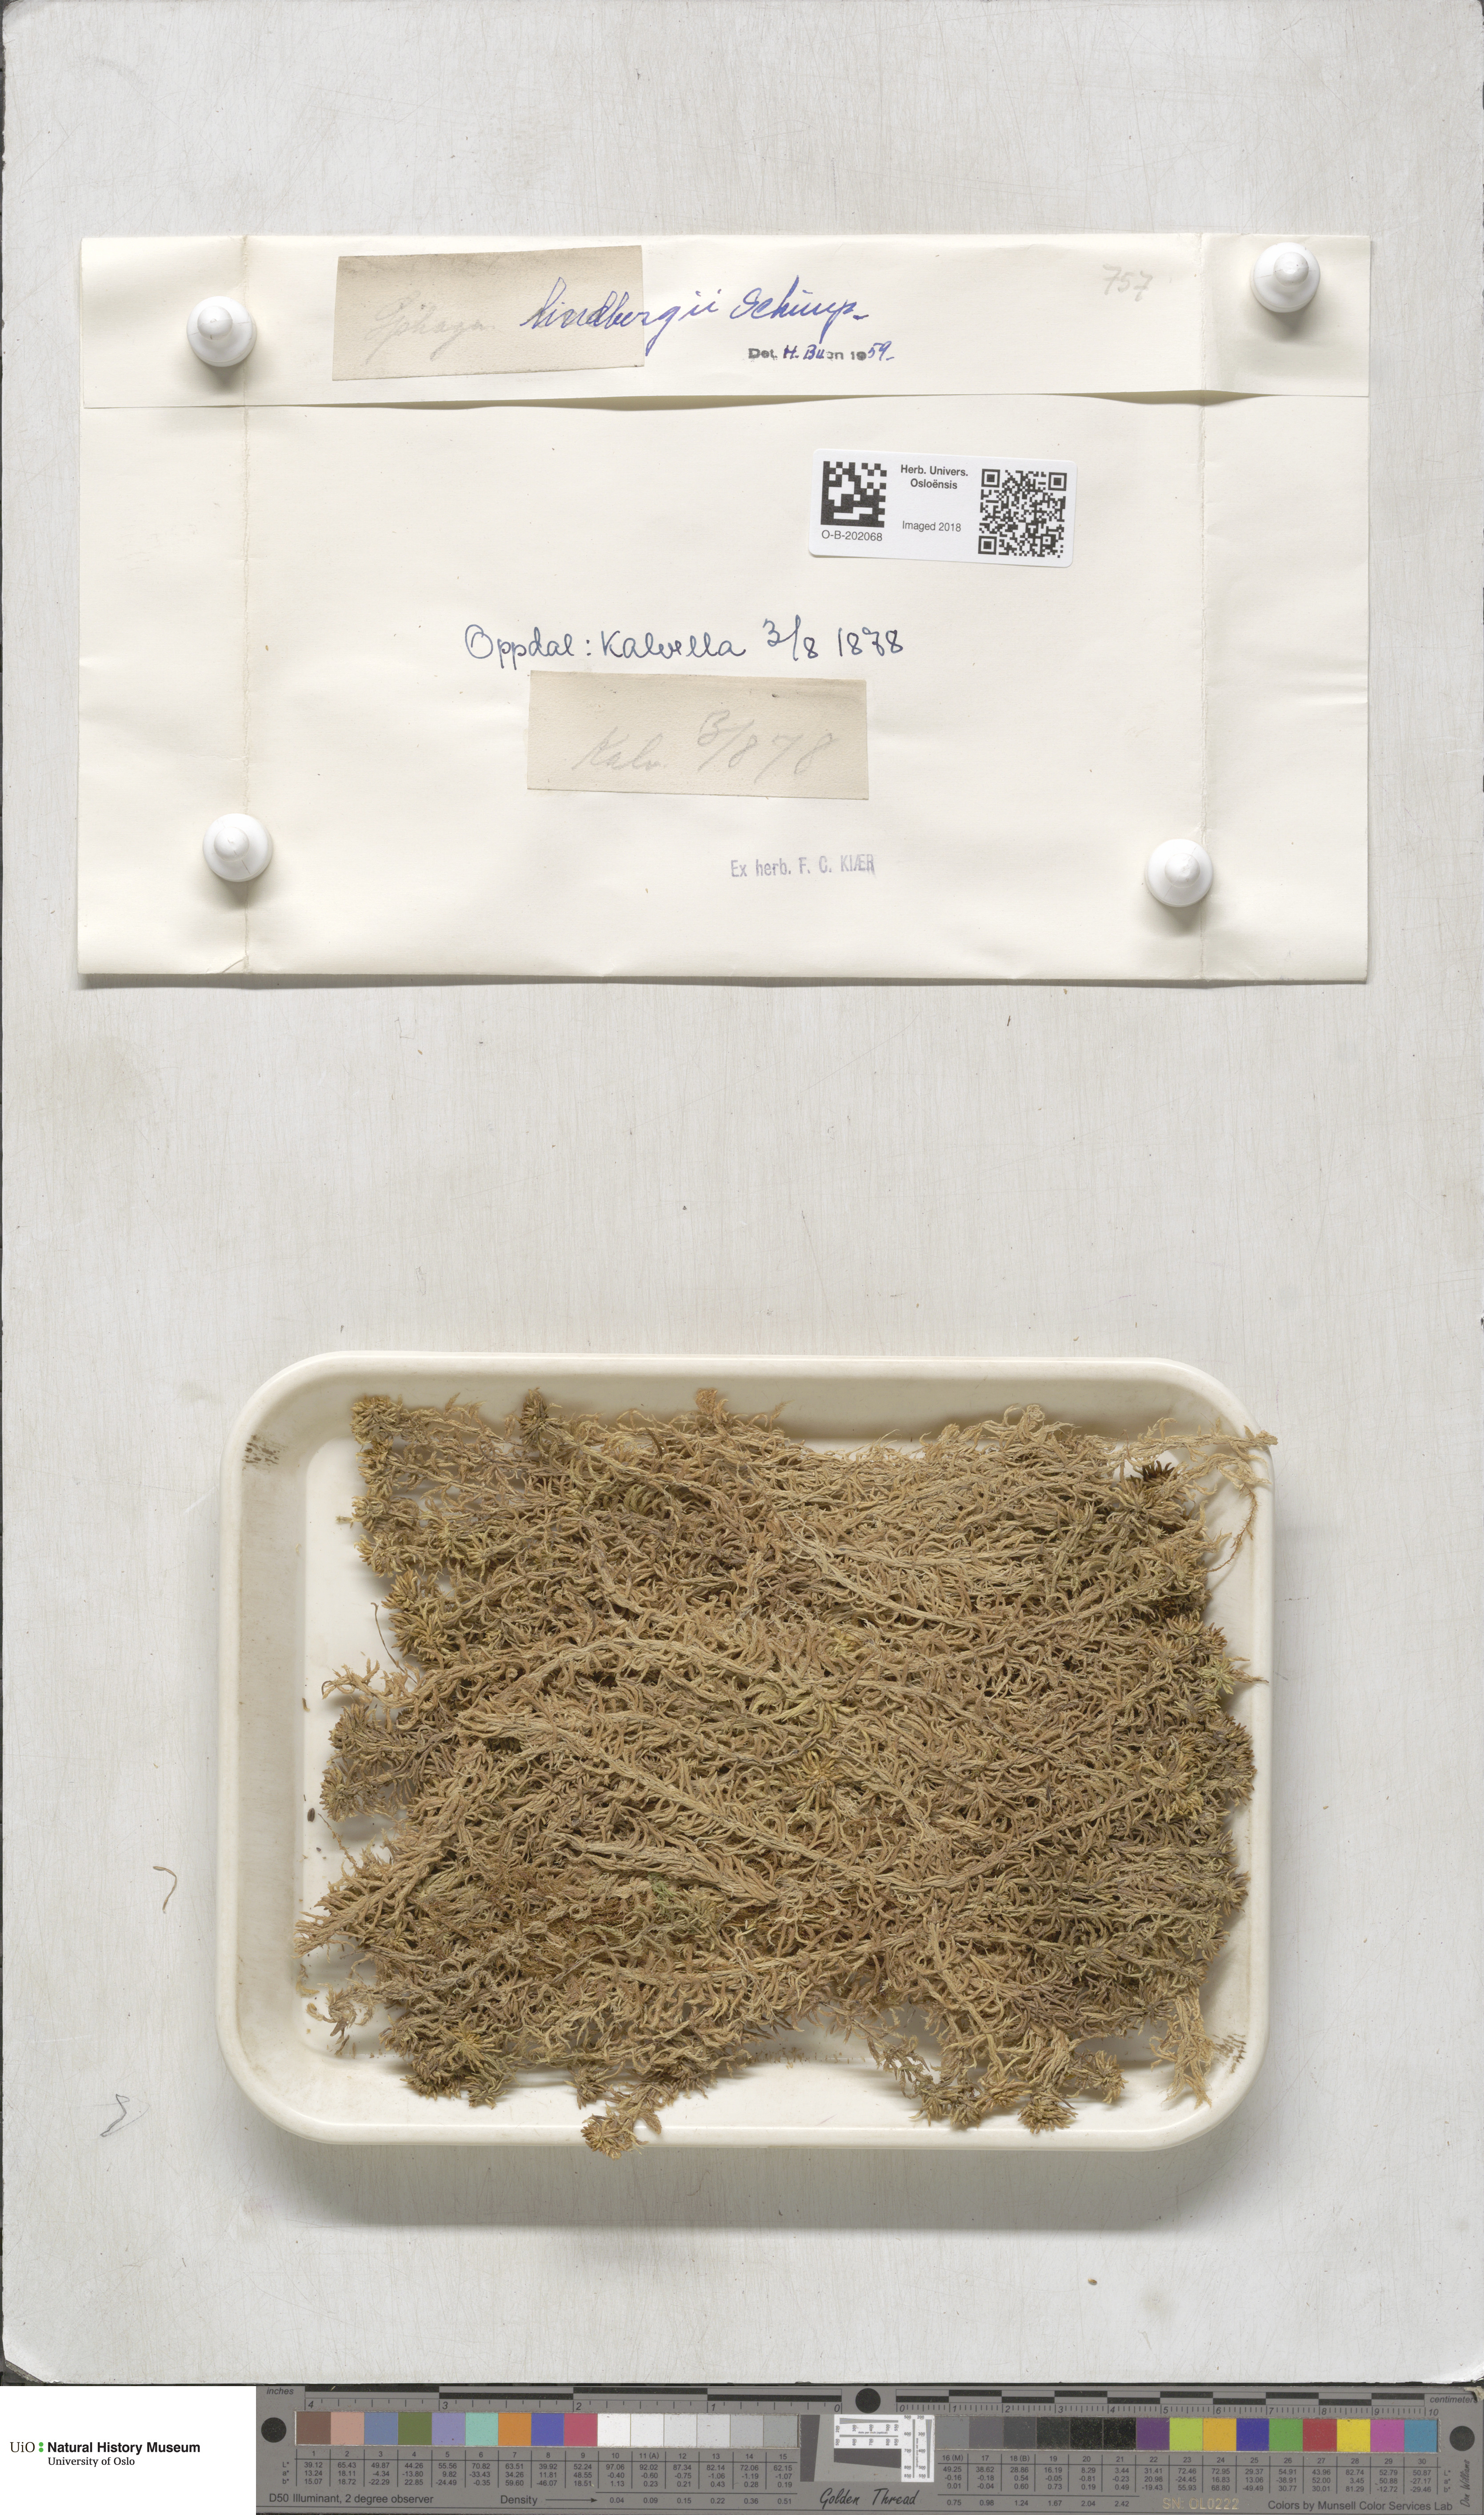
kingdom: Plantae
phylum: Bryophyta
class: Sphagnopsida
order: Sphagnales
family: Sphagnaceae
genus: Sphagnum
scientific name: Sphagnum lindbergii
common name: Lindberg's peat moss
